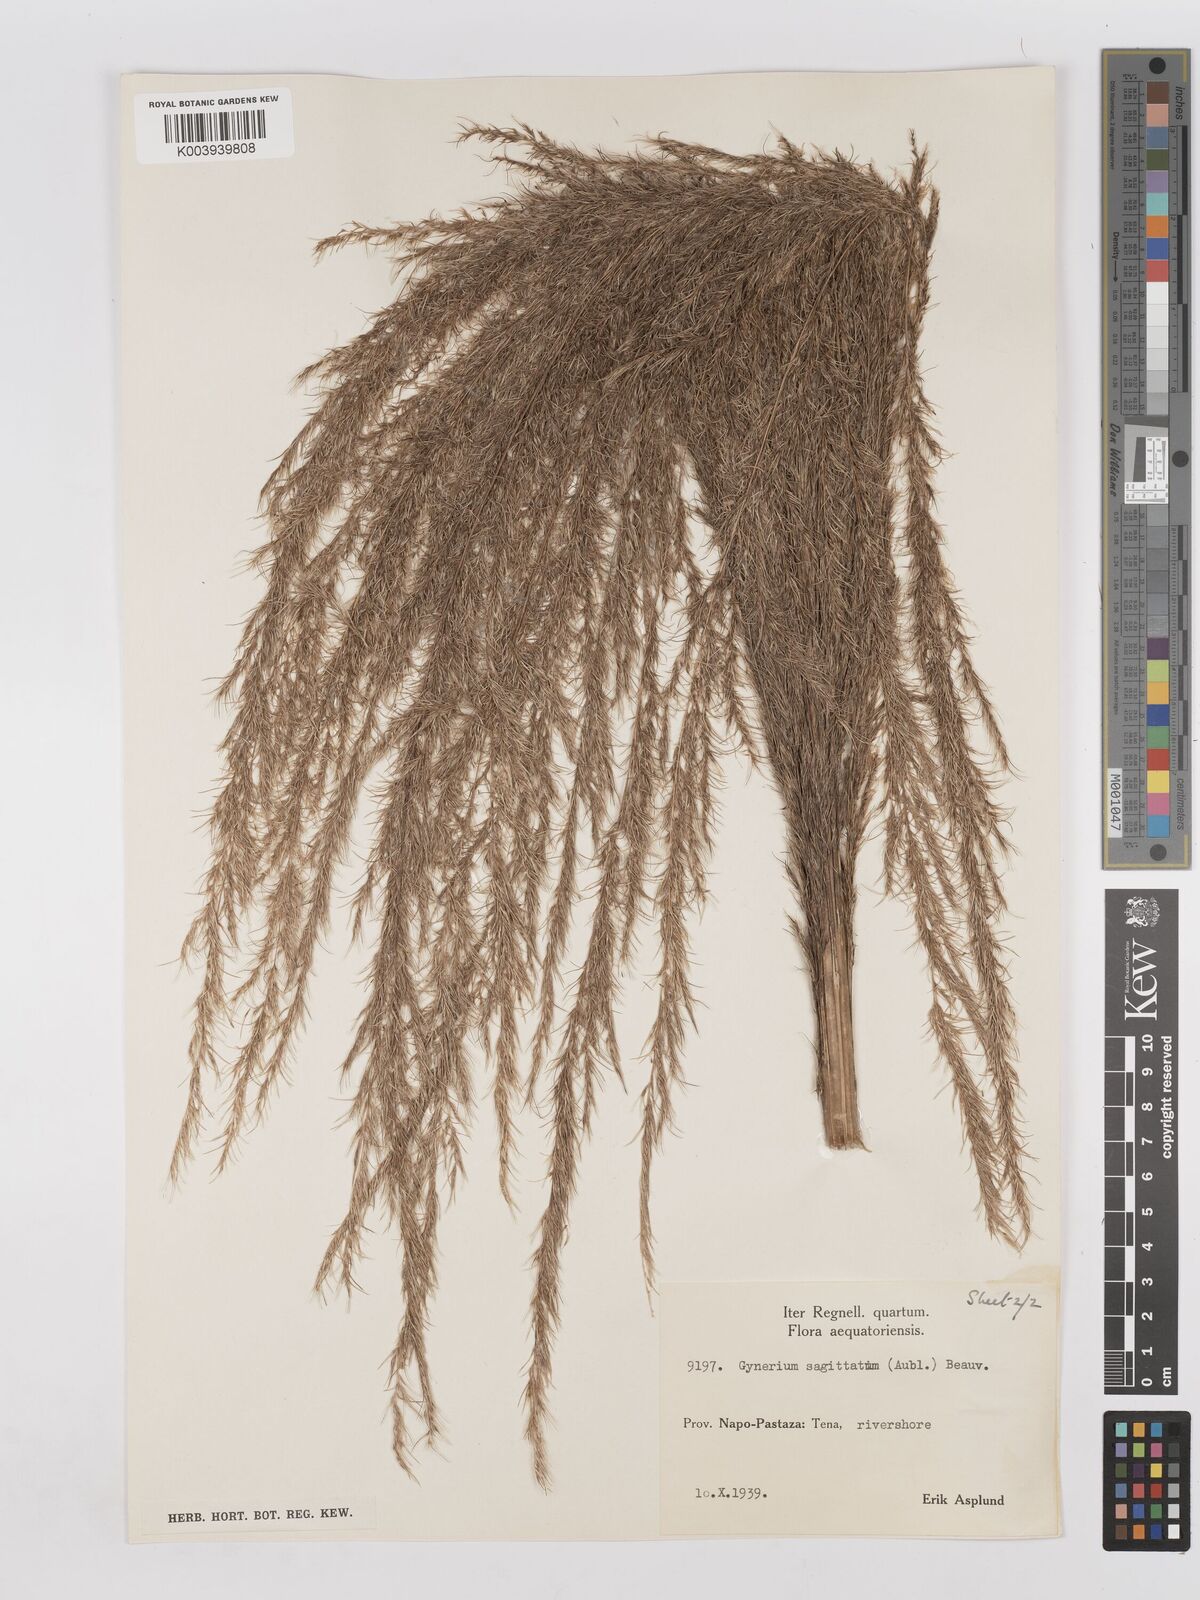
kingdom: Plantae
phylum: Tracheophyta
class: Liliopsida
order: Poales
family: Poaceae
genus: Gynerium
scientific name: Gynerium sagittatum
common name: Wild cane
